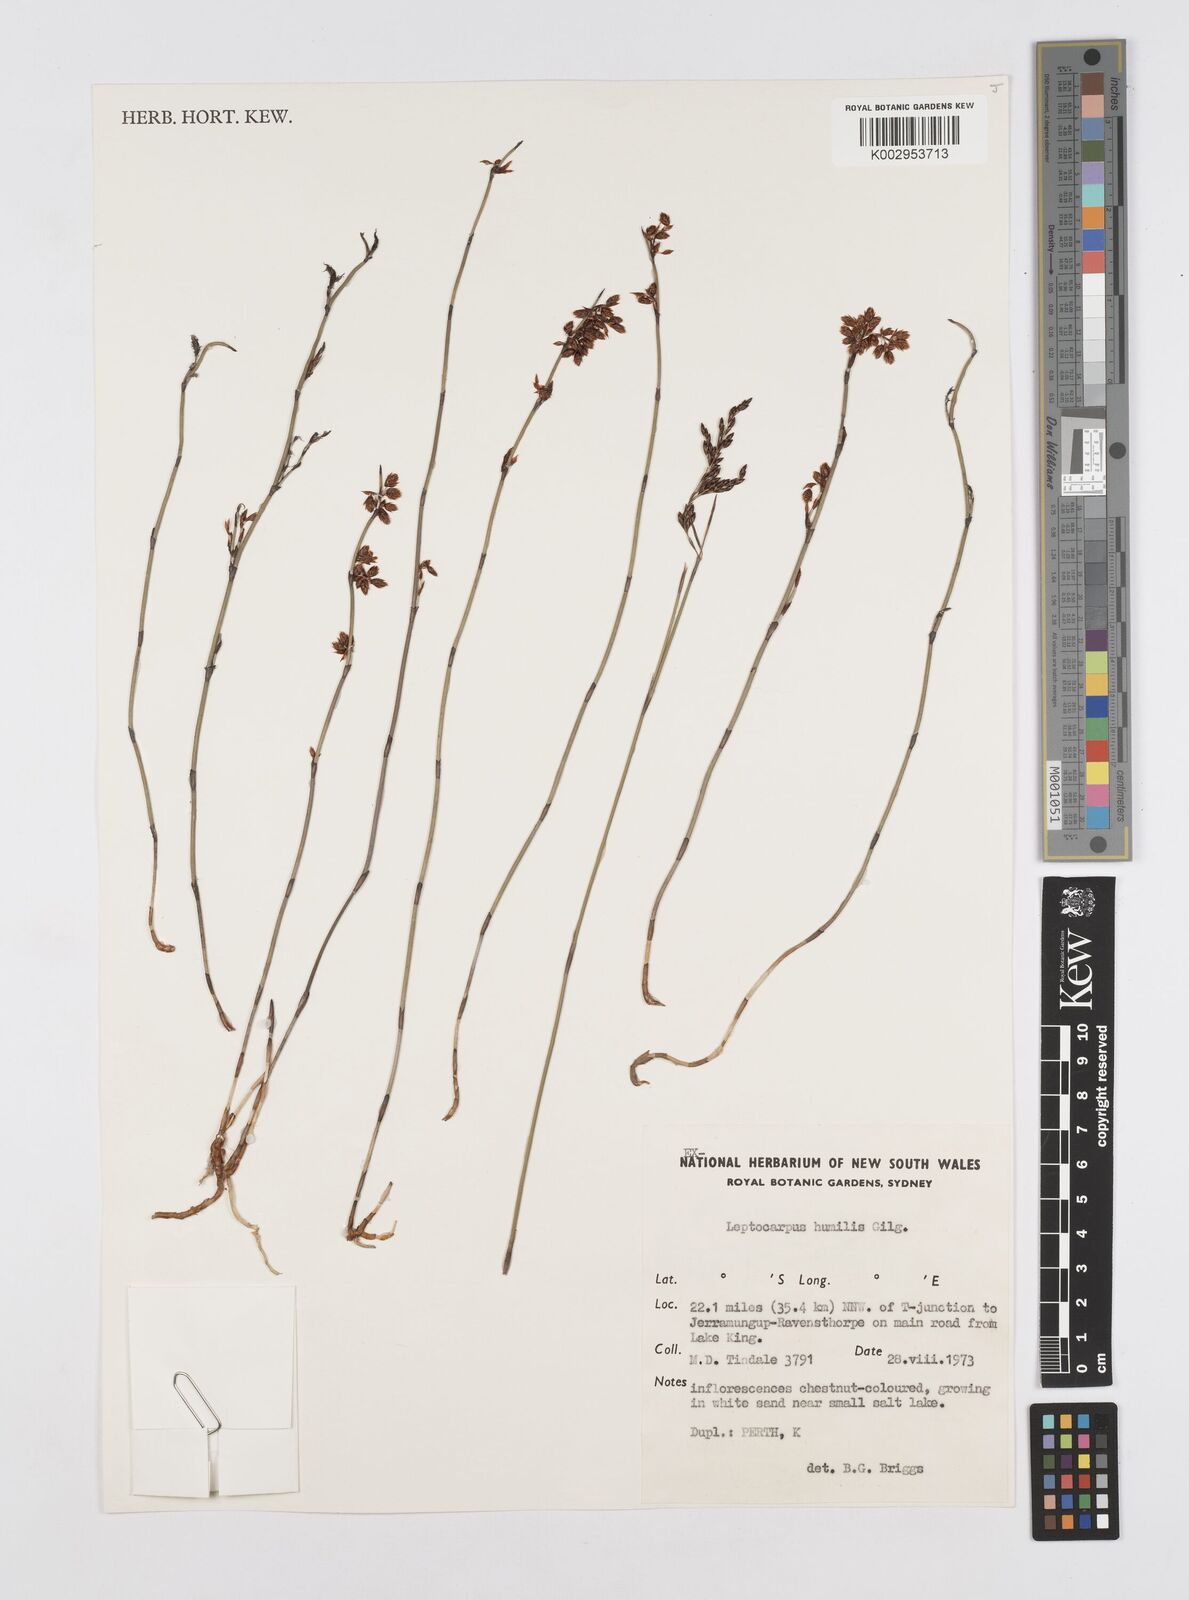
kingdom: Plantae
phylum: Tracheophyta
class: Liliopsida
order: Poales
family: Restionaceae
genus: Hypolaena
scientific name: Hypolaena humilis
